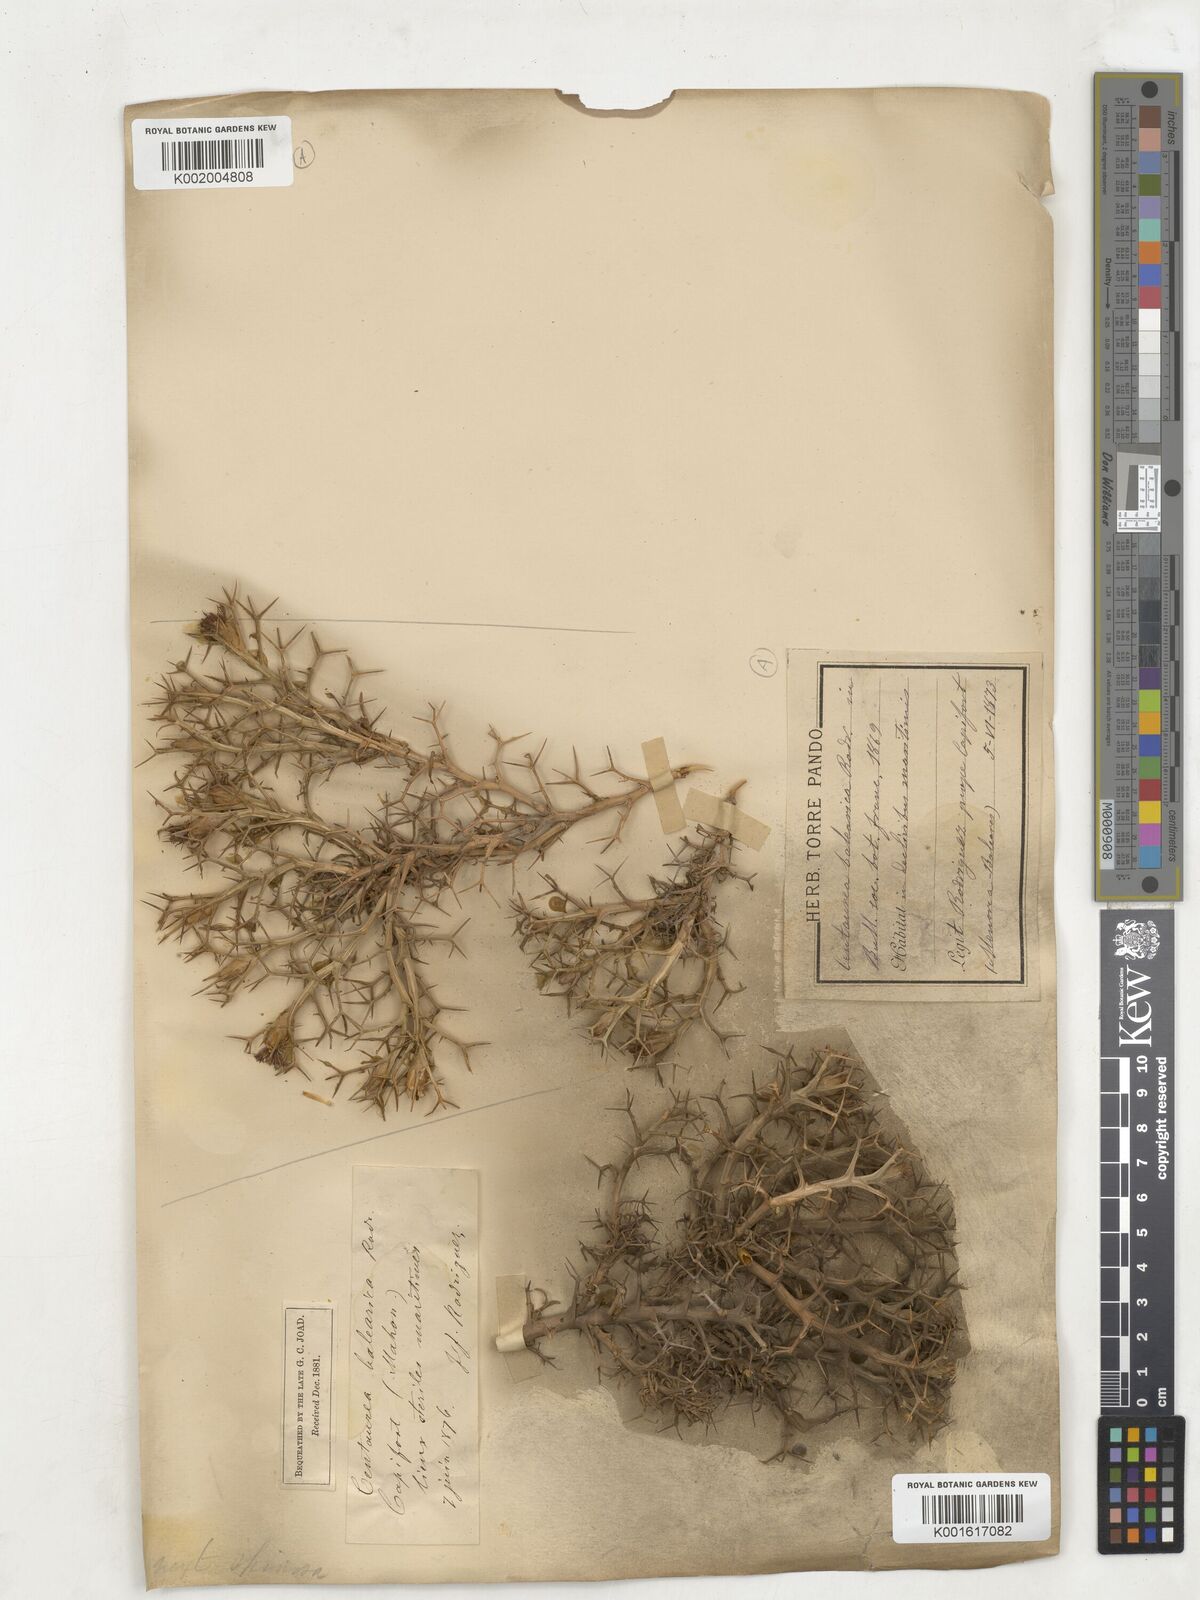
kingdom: Plantae
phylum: Tracheophyta
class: Magnoliopsida
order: Asterales
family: Asteraceae
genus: Carduncellus
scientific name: Carduncellus balearicus
